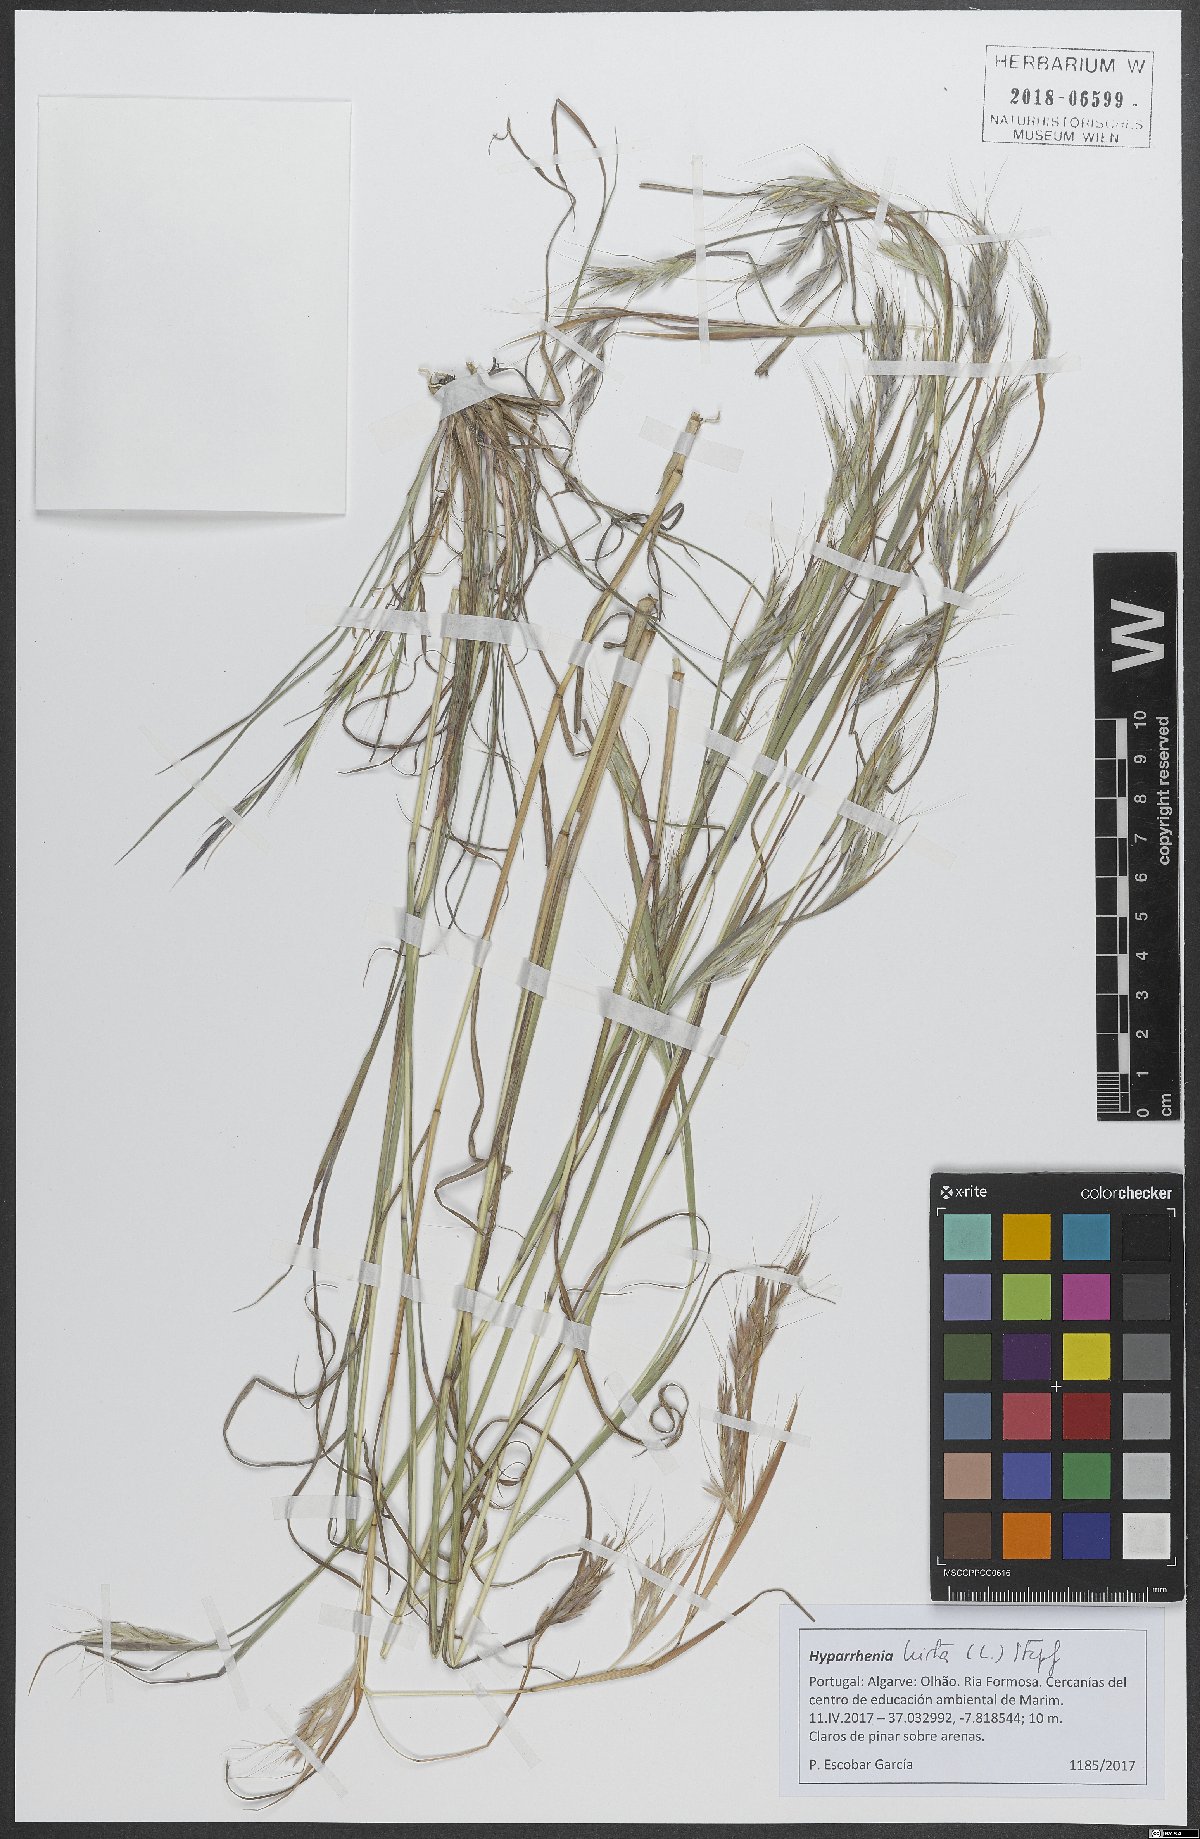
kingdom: Plantae
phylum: Tracheophyta
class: Liliopsida
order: Poales
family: Poaceae
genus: Hyparrhenia
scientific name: Hyparrhenia hirta
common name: Thatching grass
